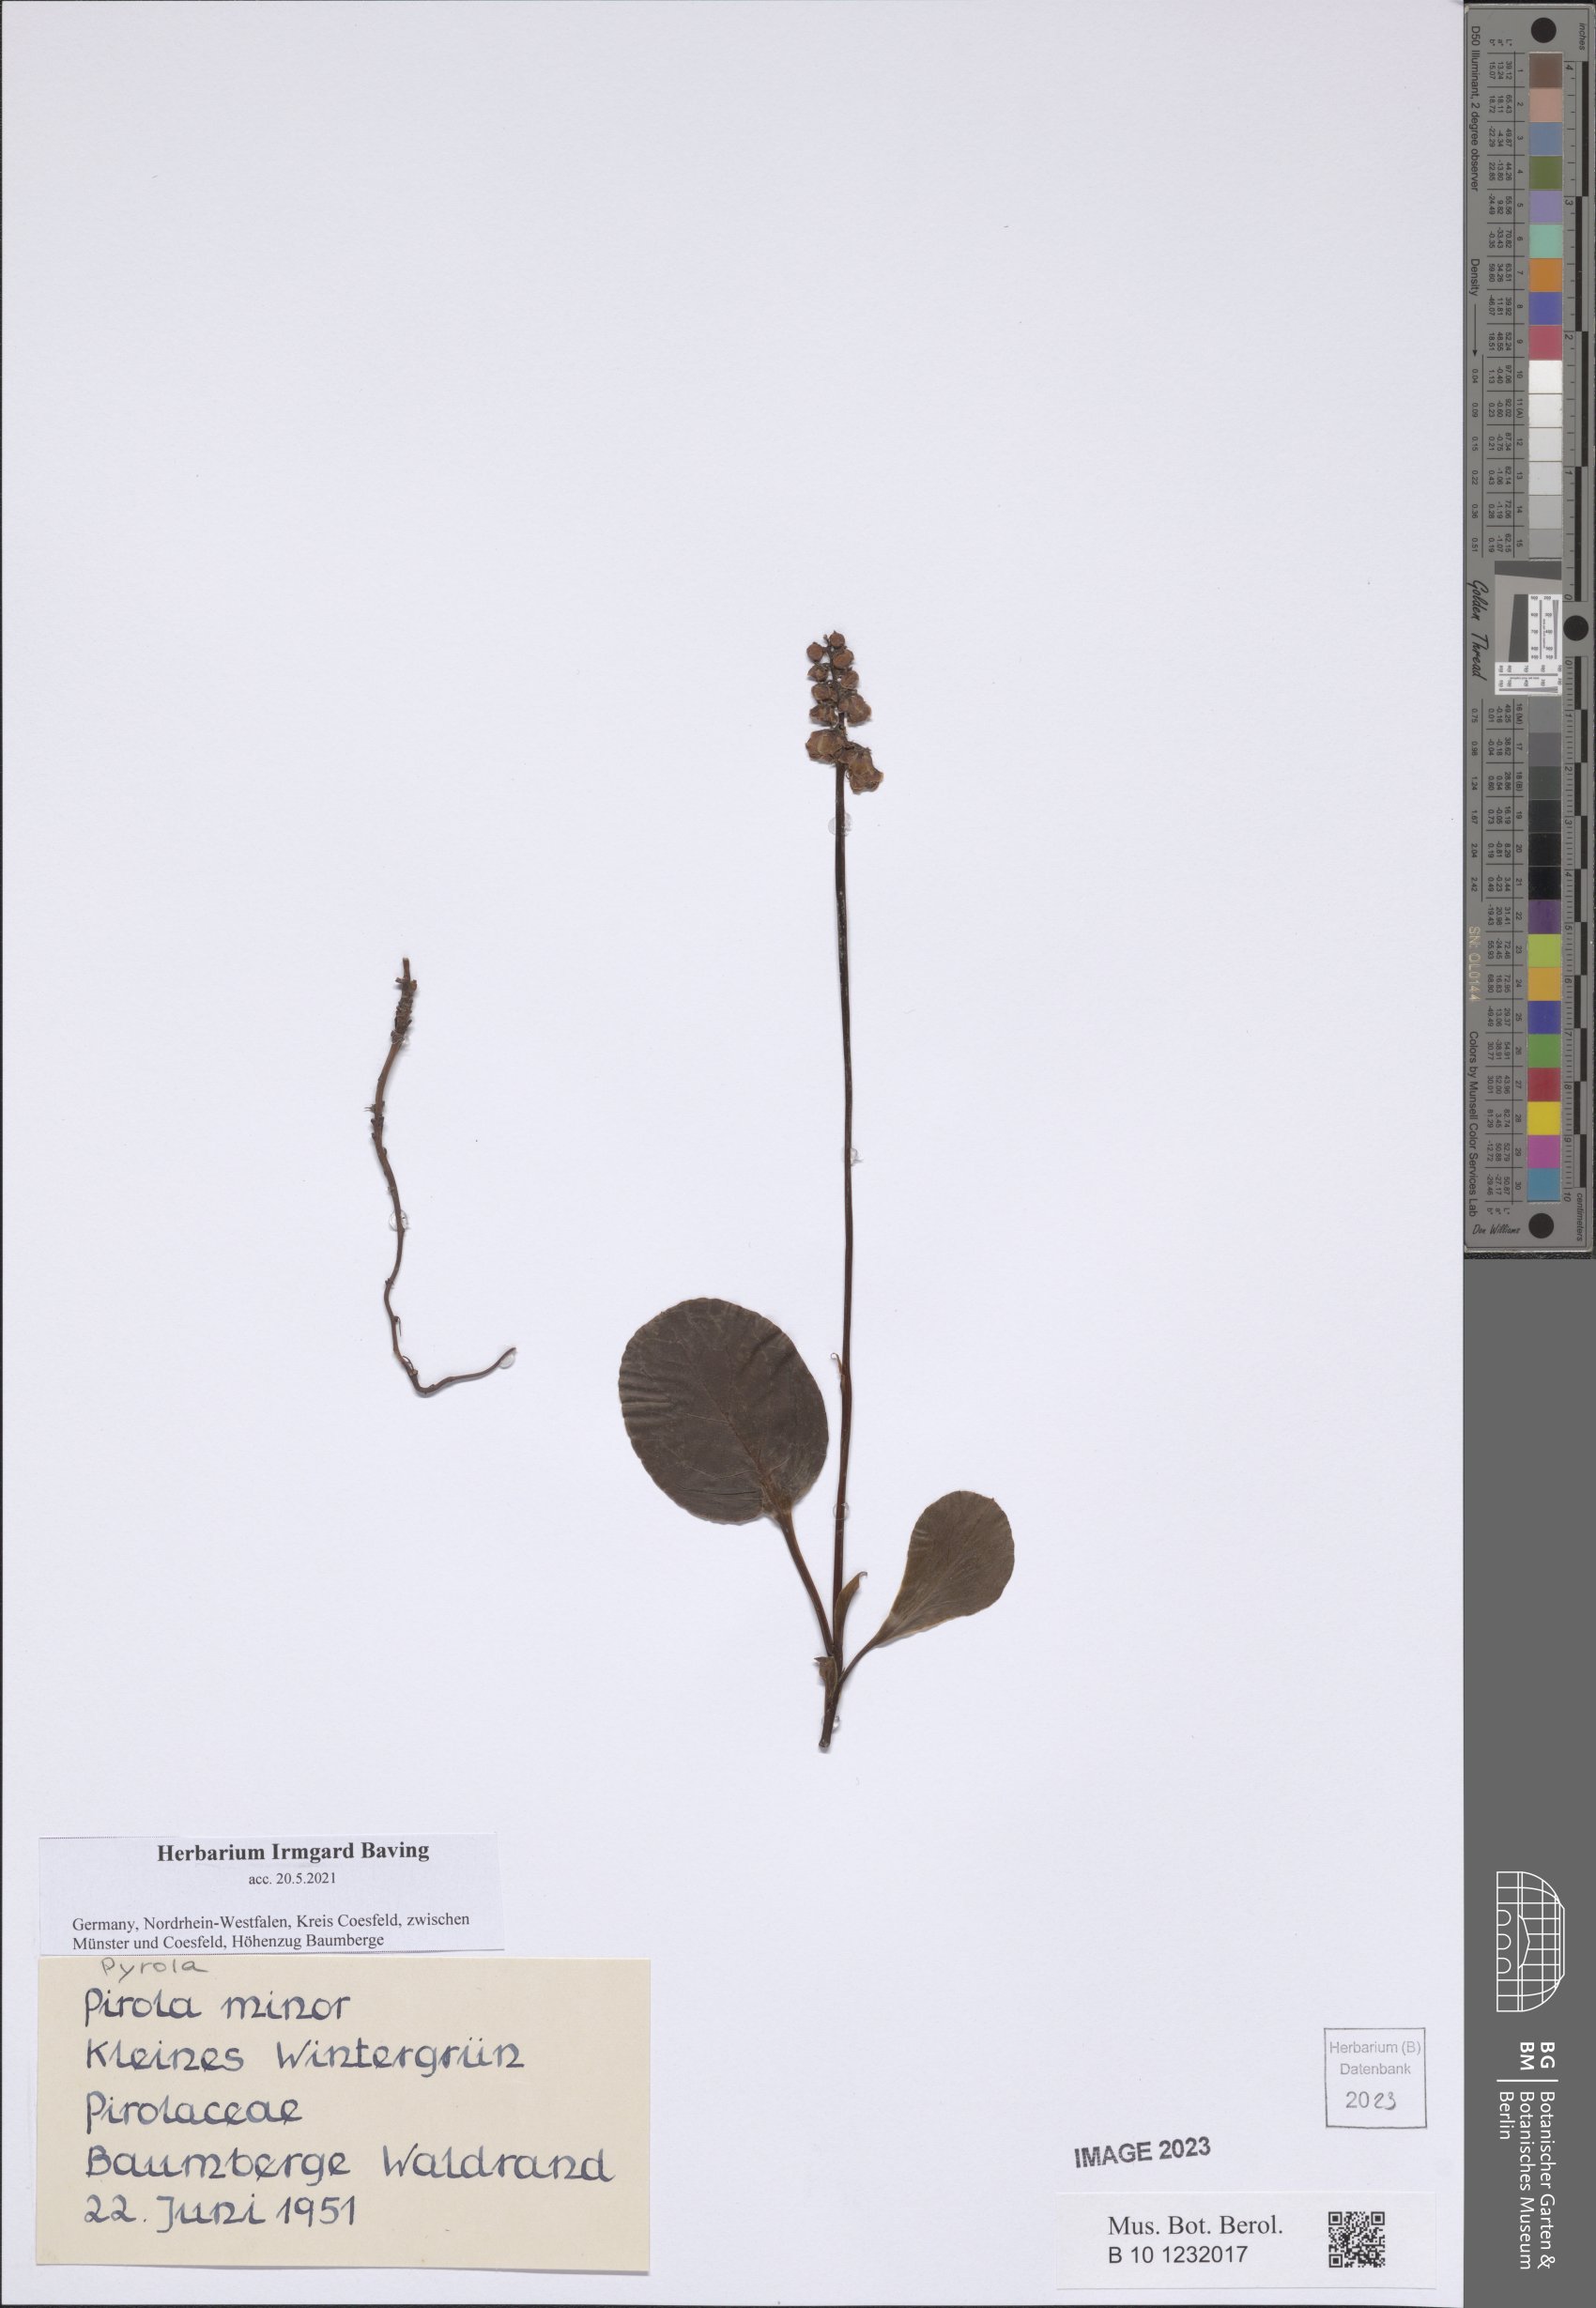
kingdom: Plantae
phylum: Tracheophyta
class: Magnoliopsida
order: Ericales
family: Ericaceae
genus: Pyrola
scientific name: Pyrola minor
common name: Common wintergreen
